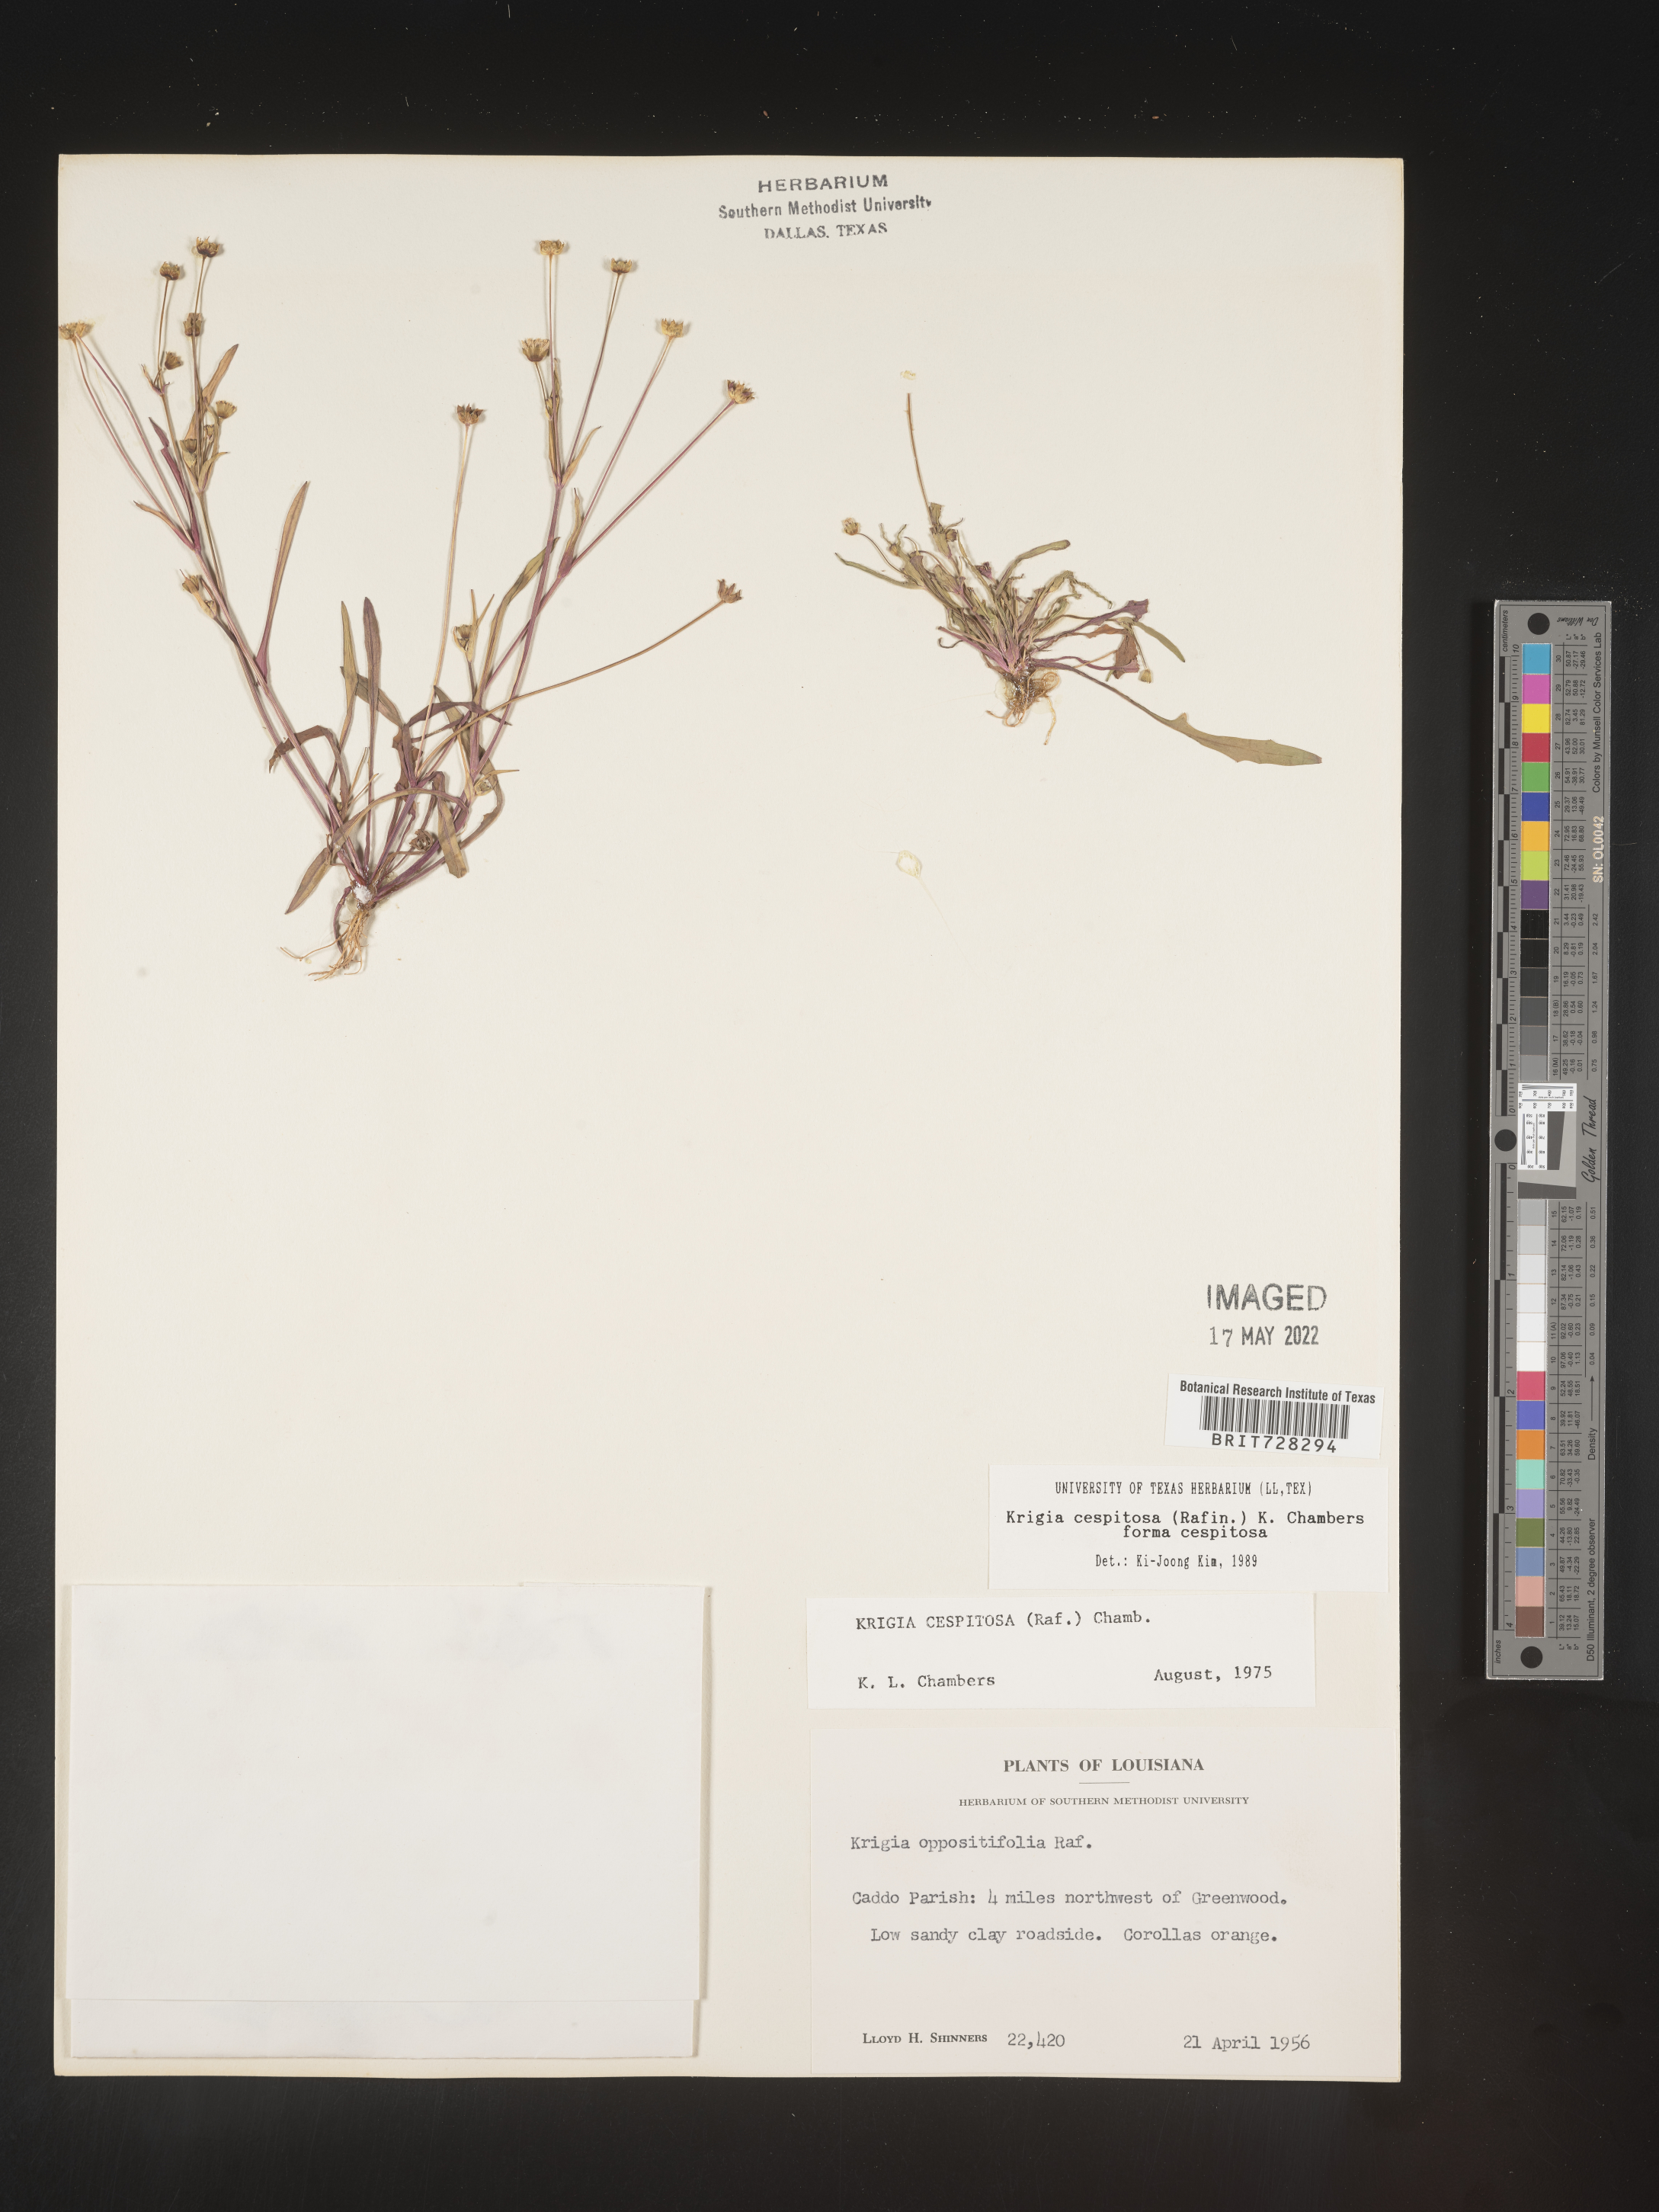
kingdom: Plantae
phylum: Tracheophyta
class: Magnoliopsida
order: Asterales
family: Asteraceae
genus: Krigia
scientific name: Krigia caespitosa
